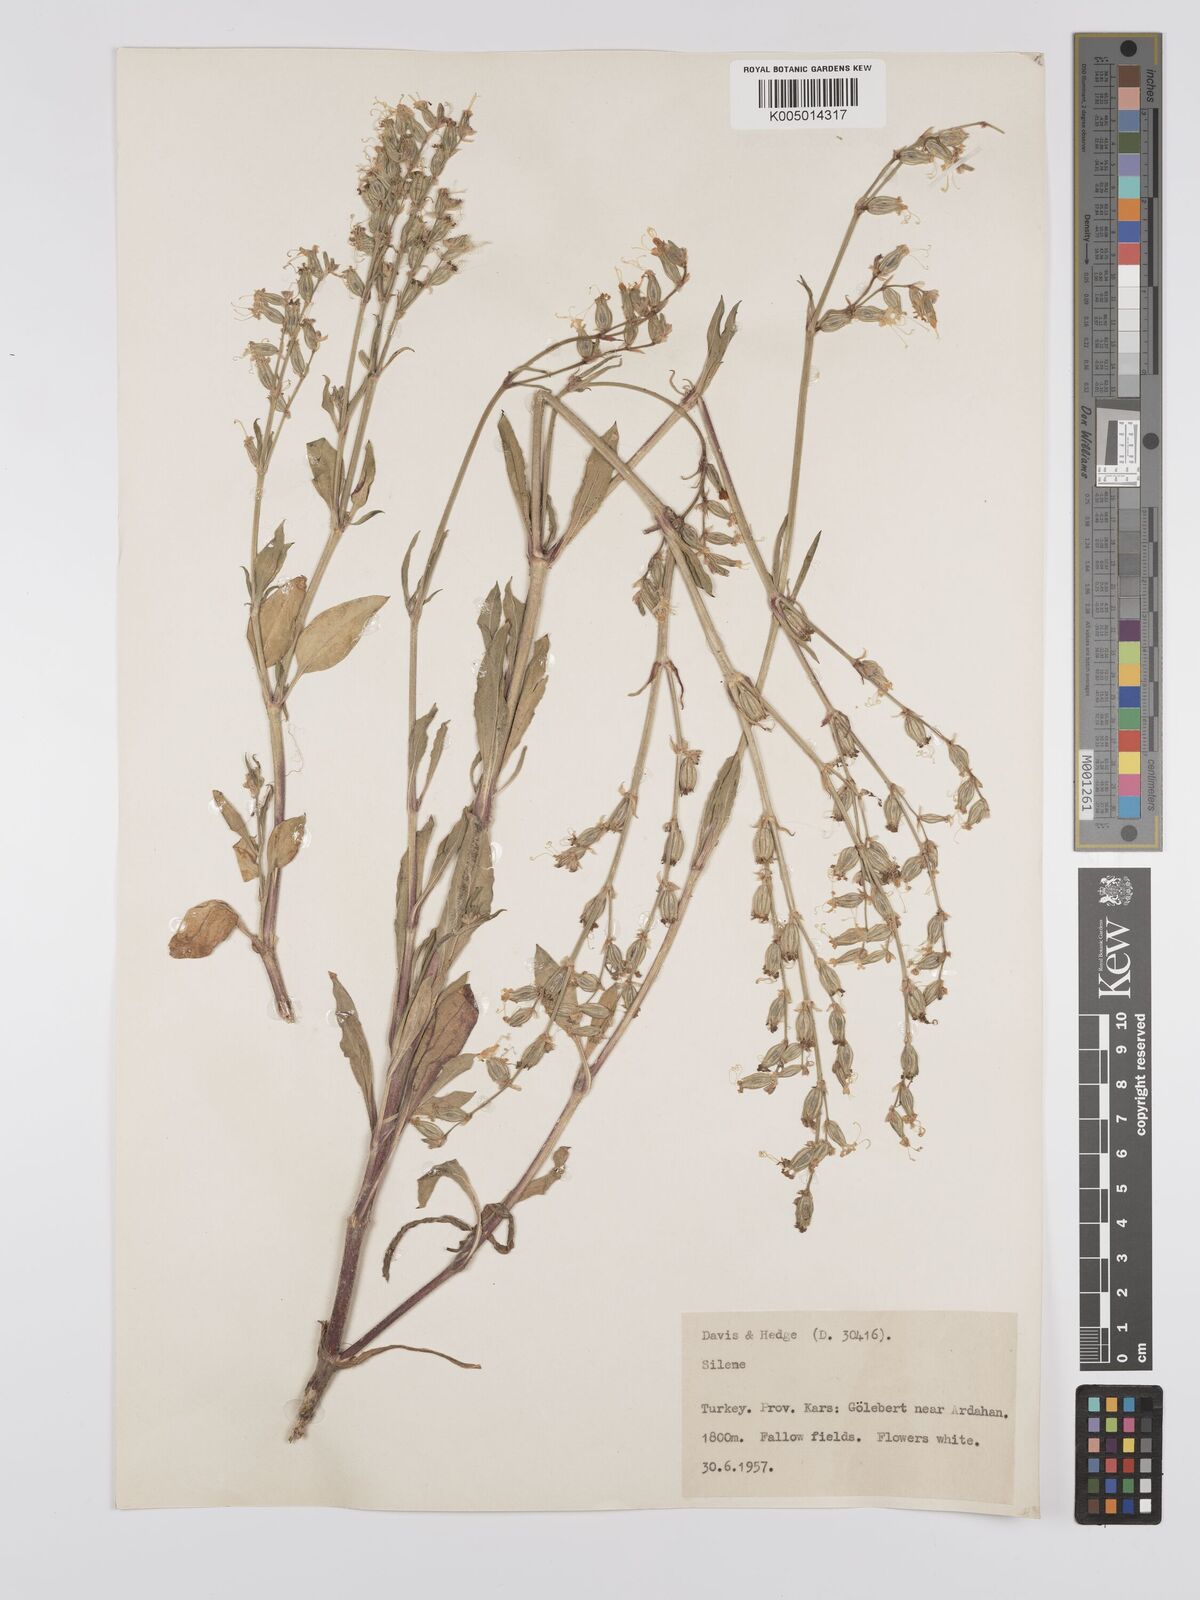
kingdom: Plantae
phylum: Tracheophyta
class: Magnoliopsida
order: Caryophyllales
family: Caryophyllaceae
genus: Silene
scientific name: Silene
